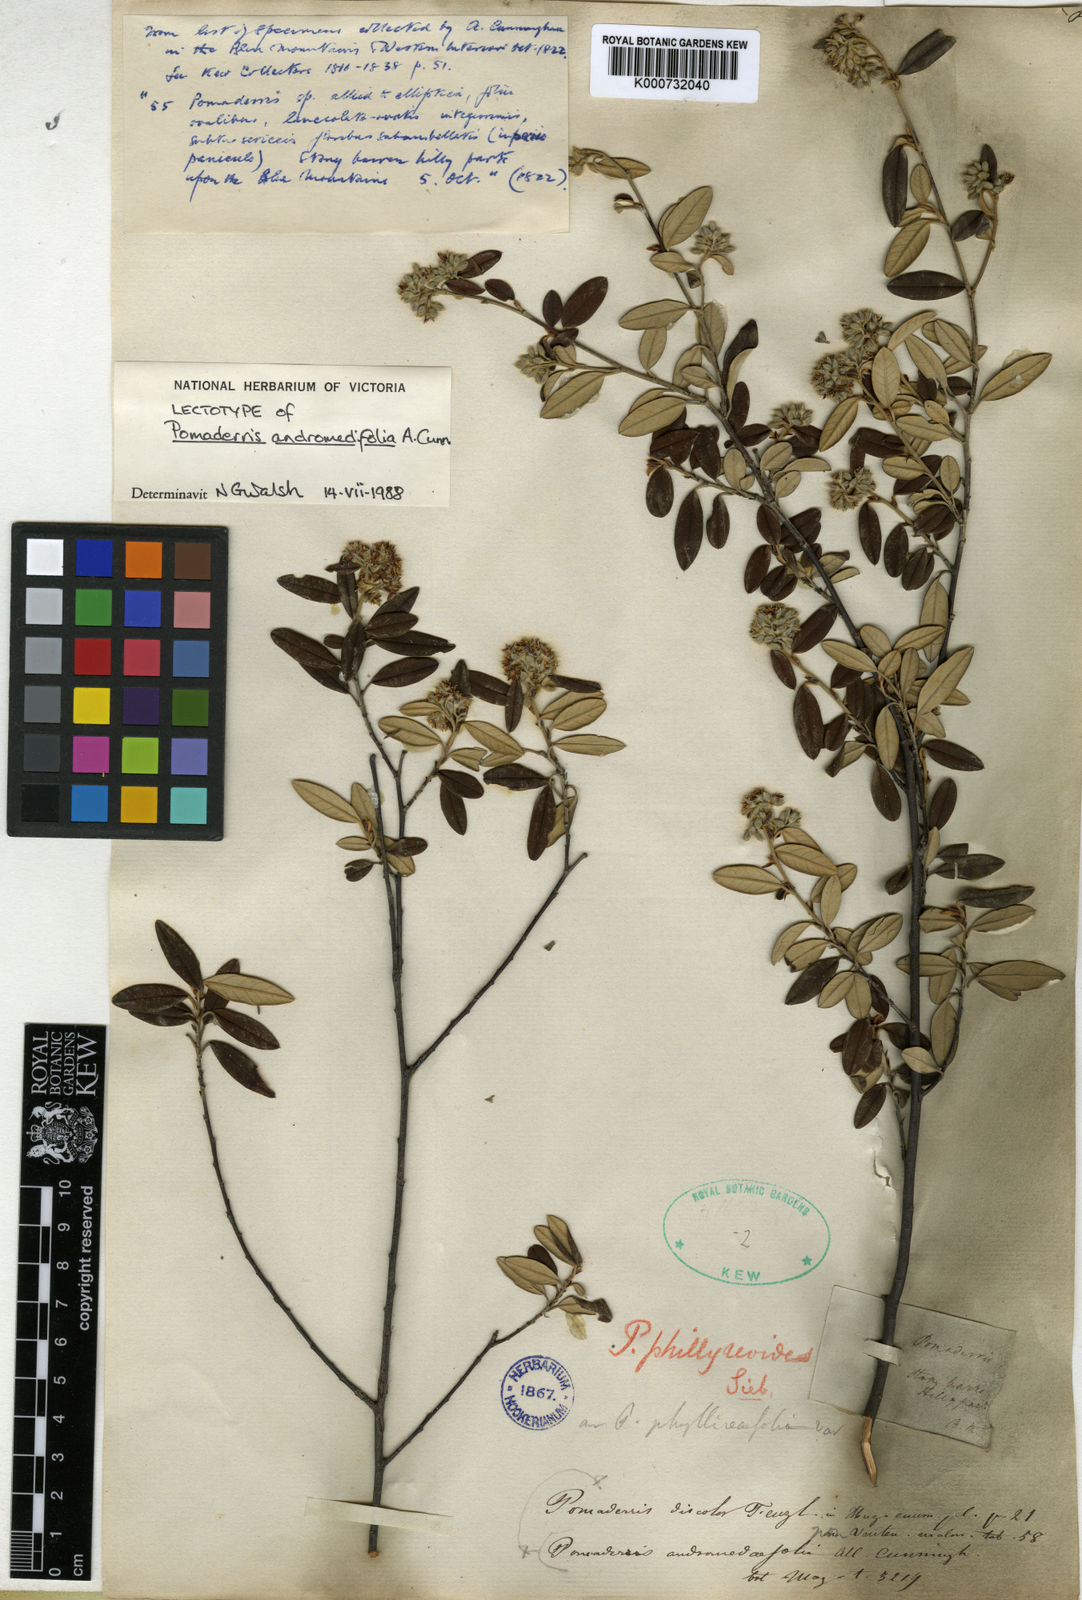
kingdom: Plantae
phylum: Tracheophyta
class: Magnoliopsida
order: Rosales
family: Rhamnaceae
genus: Pomaderris
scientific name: Pomaderris
